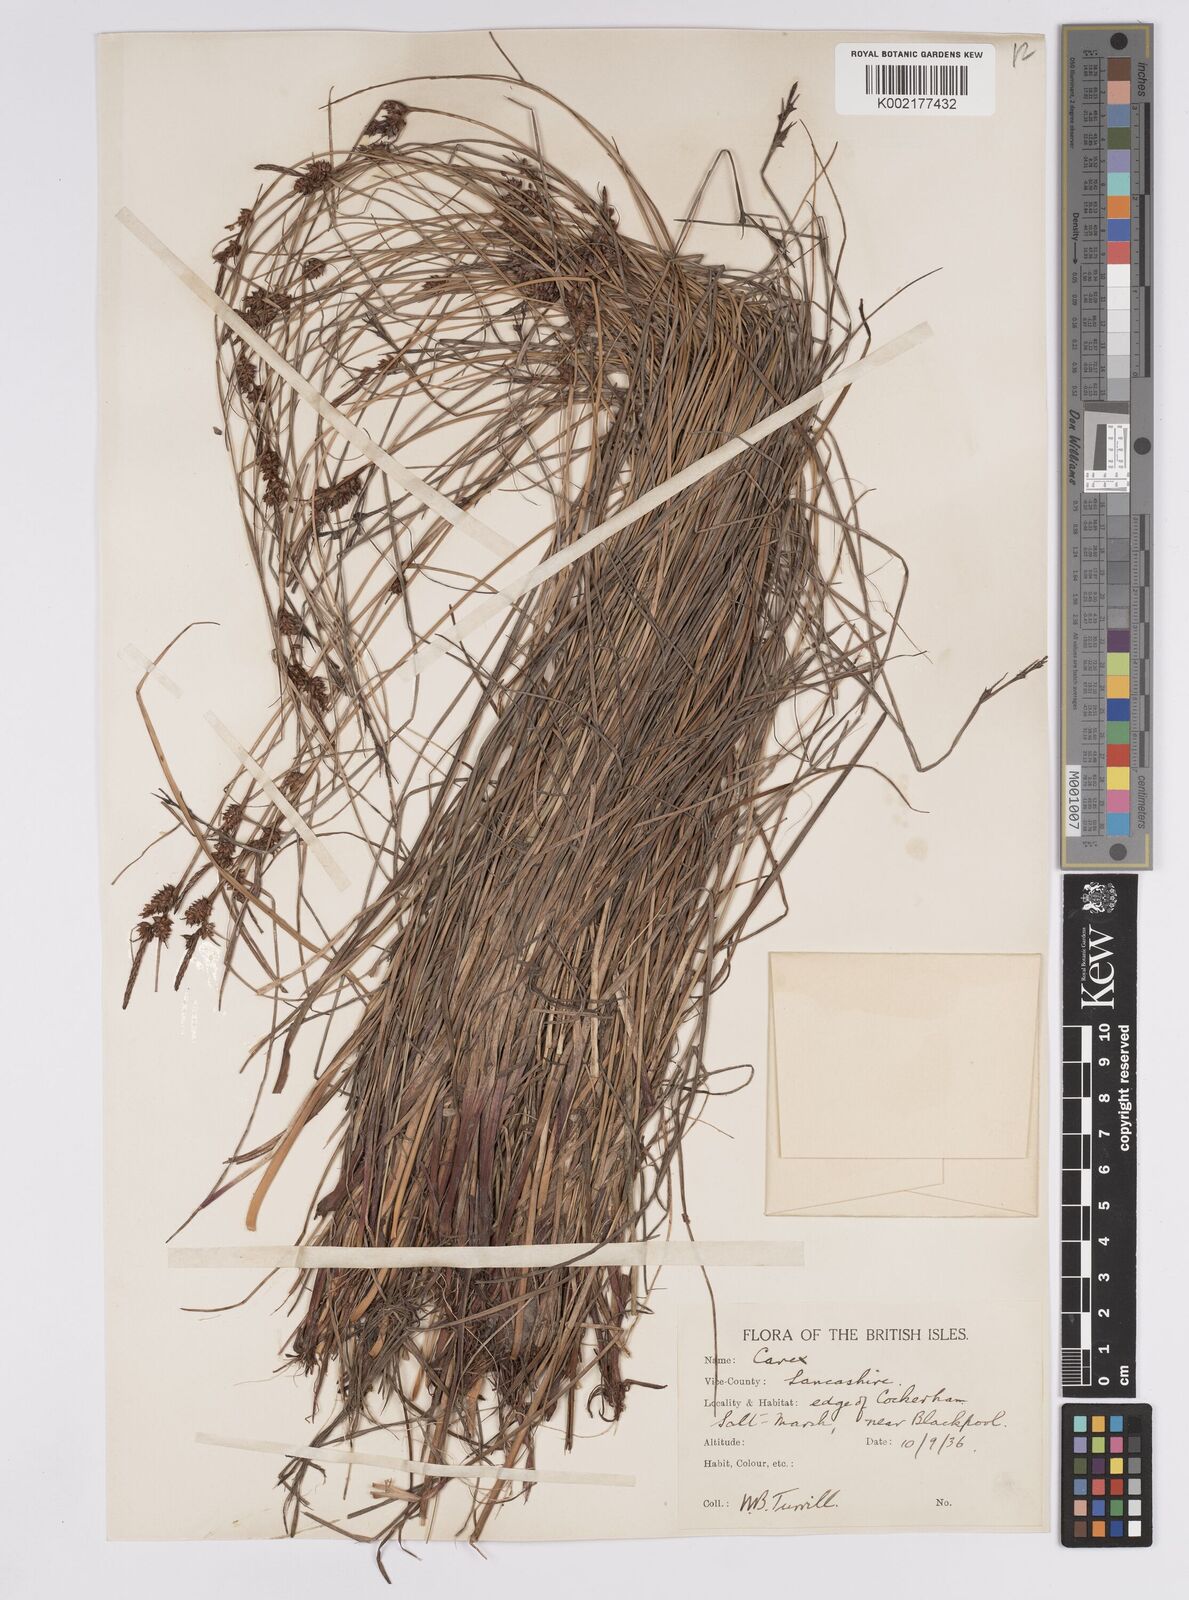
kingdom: Plantae
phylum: Tracheophyta
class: Liliopsida
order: Poales
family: Cyperaceae
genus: Carex
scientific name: Carex extensa
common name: Long-bracted sedge
